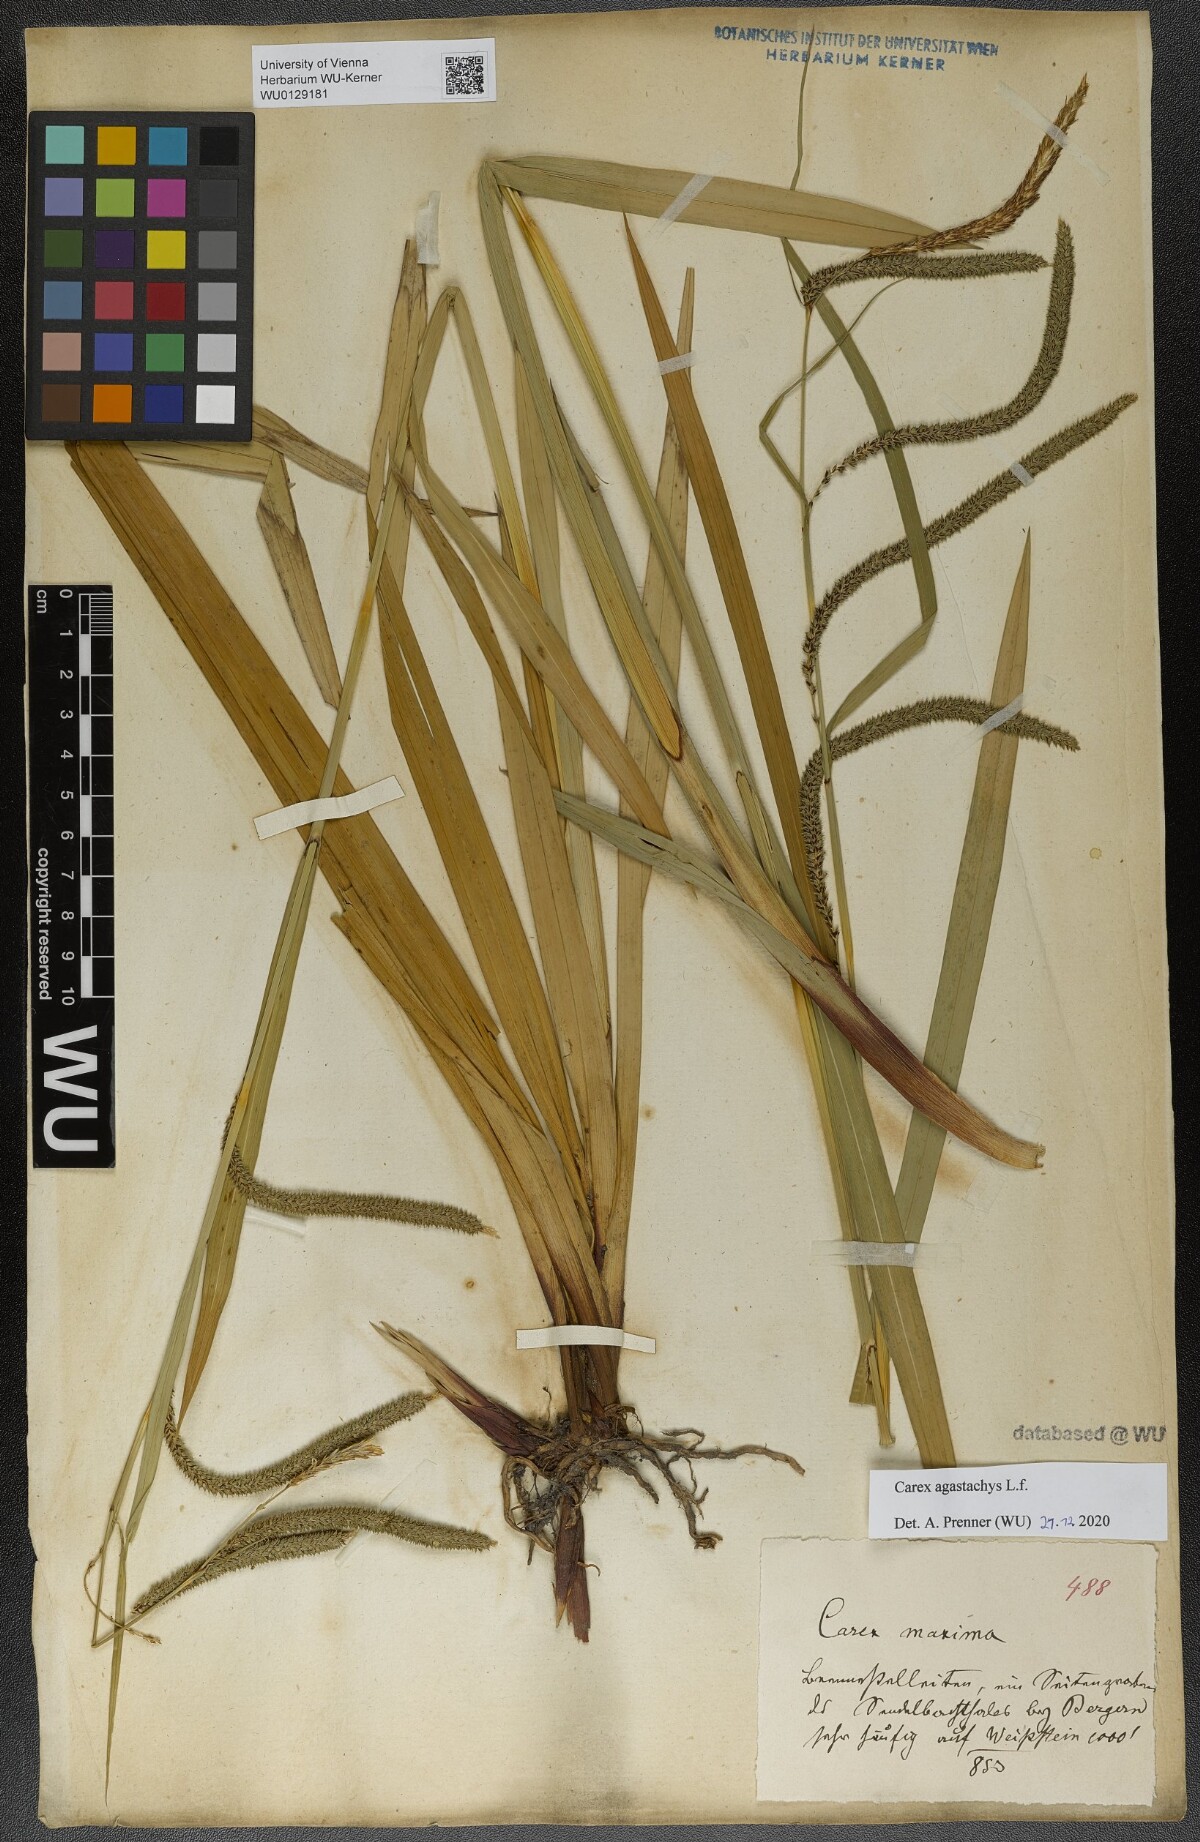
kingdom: Plantae
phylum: Tracheophyta
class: Liliopsida
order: Poales
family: Cyperaceae
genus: Carex
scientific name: Carex agastachys
